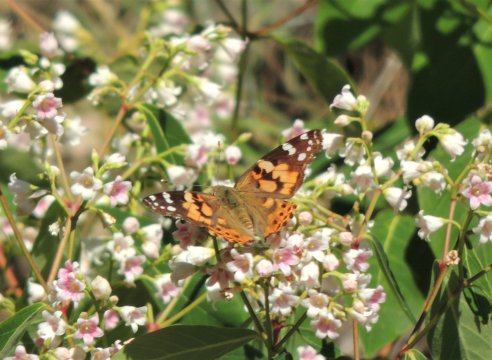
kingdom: Animalia
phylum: Arthropoda
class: Insecta
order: Lepidoptera
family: Nymphalidae
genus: Vanessa
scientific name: Vanessa cardui
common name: Painted Lady
